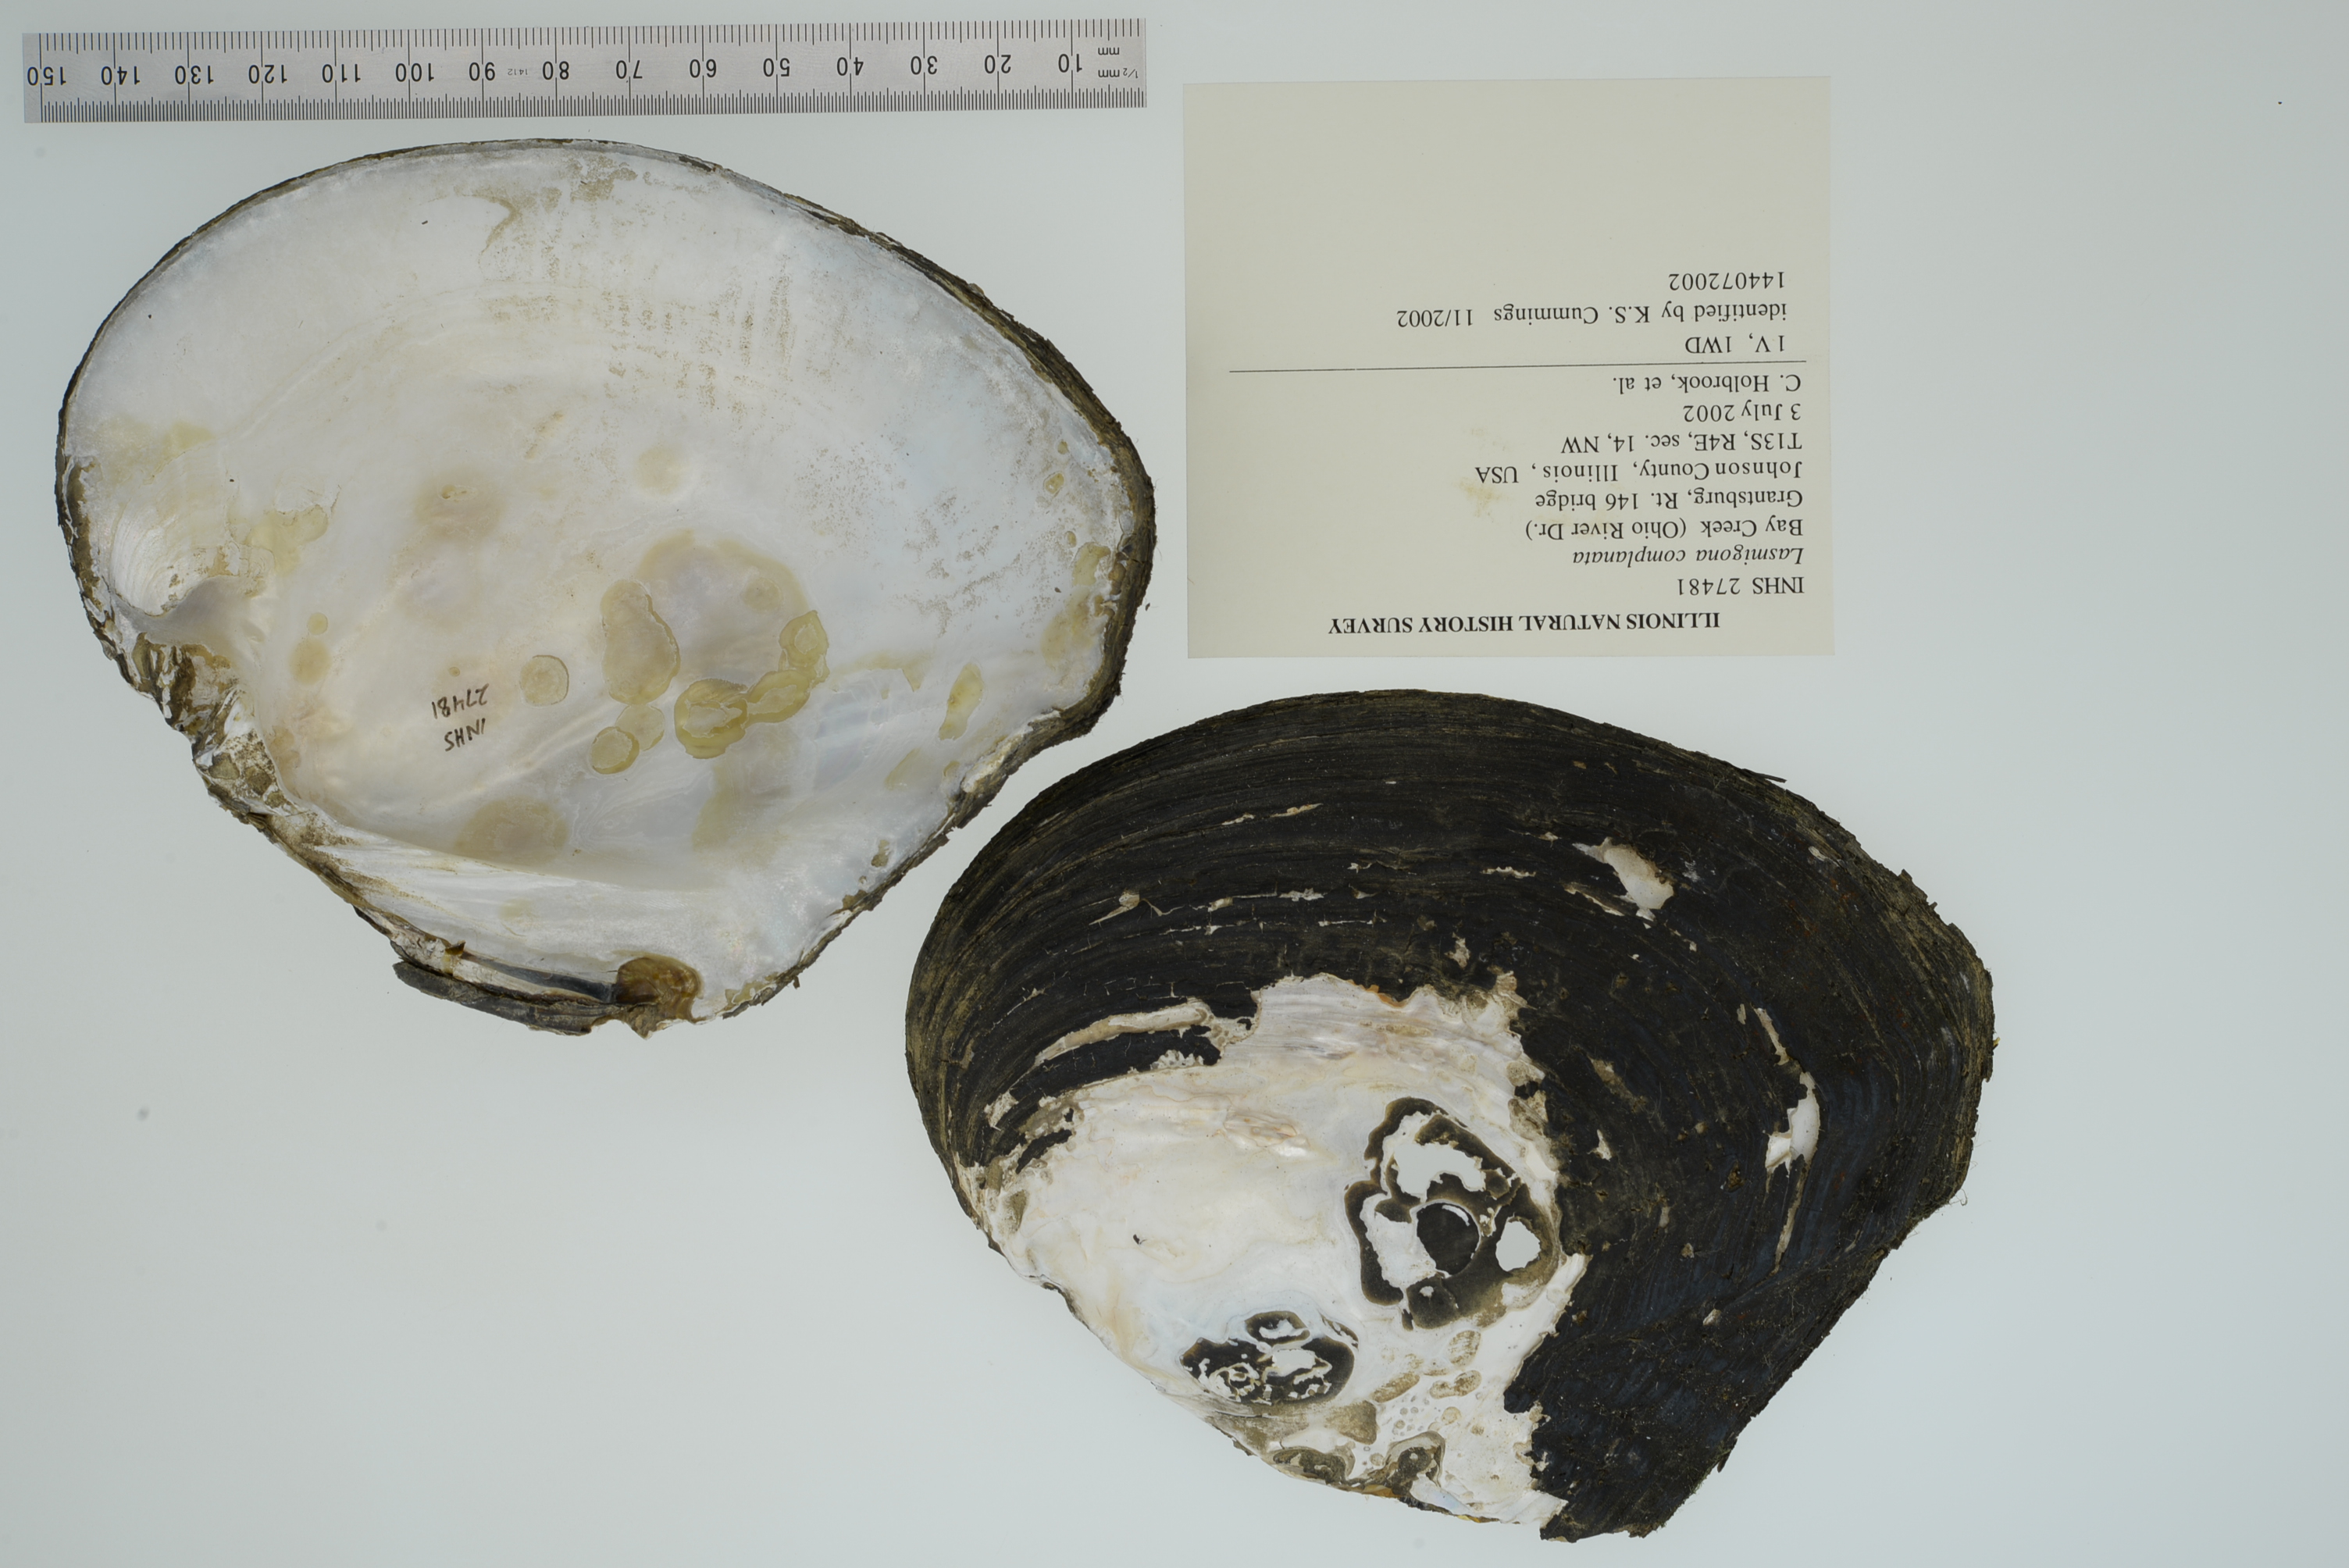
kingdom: Animalia
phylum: Mollusca
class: Bivalvia
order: Unionida
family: Unionidae
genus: Lasmigona
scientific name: Lasmigona complanata
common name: White heelsplitter
